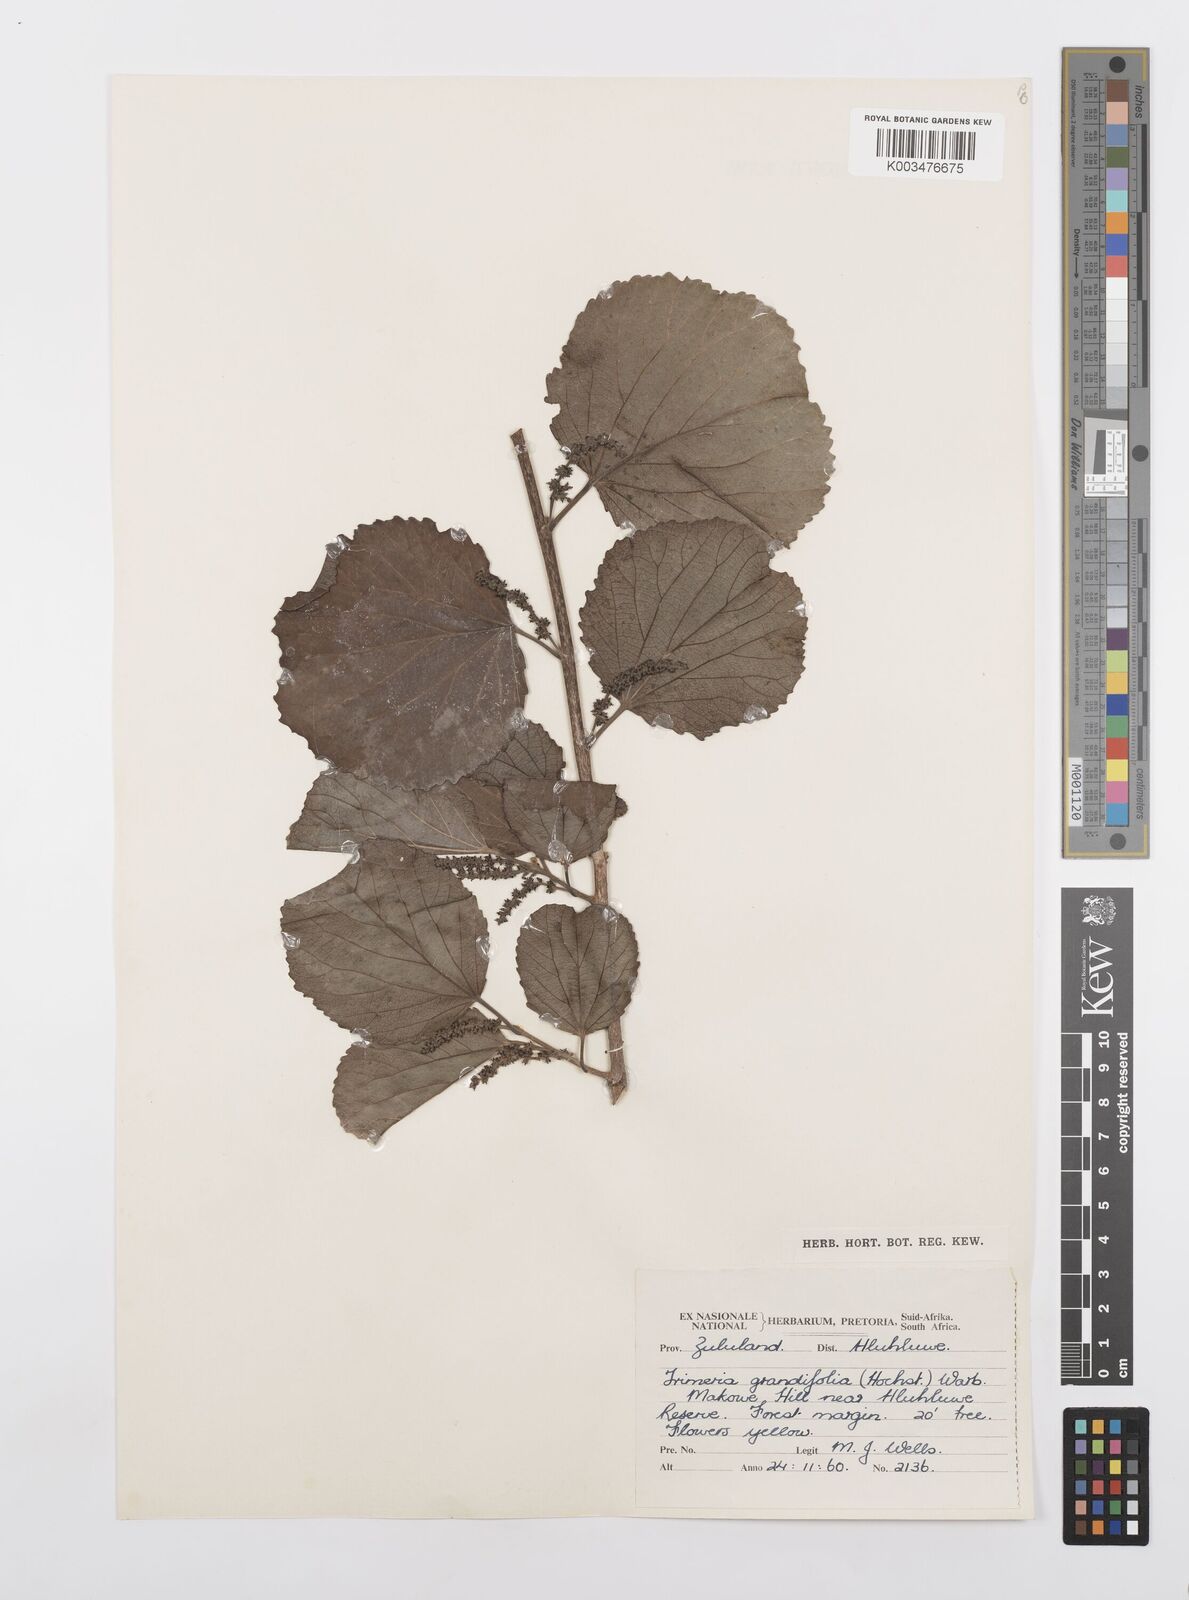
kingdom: Plantae
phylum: Tracheophyta
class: Magnoliopsida
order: Malpighiales
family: Salicaceae
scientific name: Salicaceae
